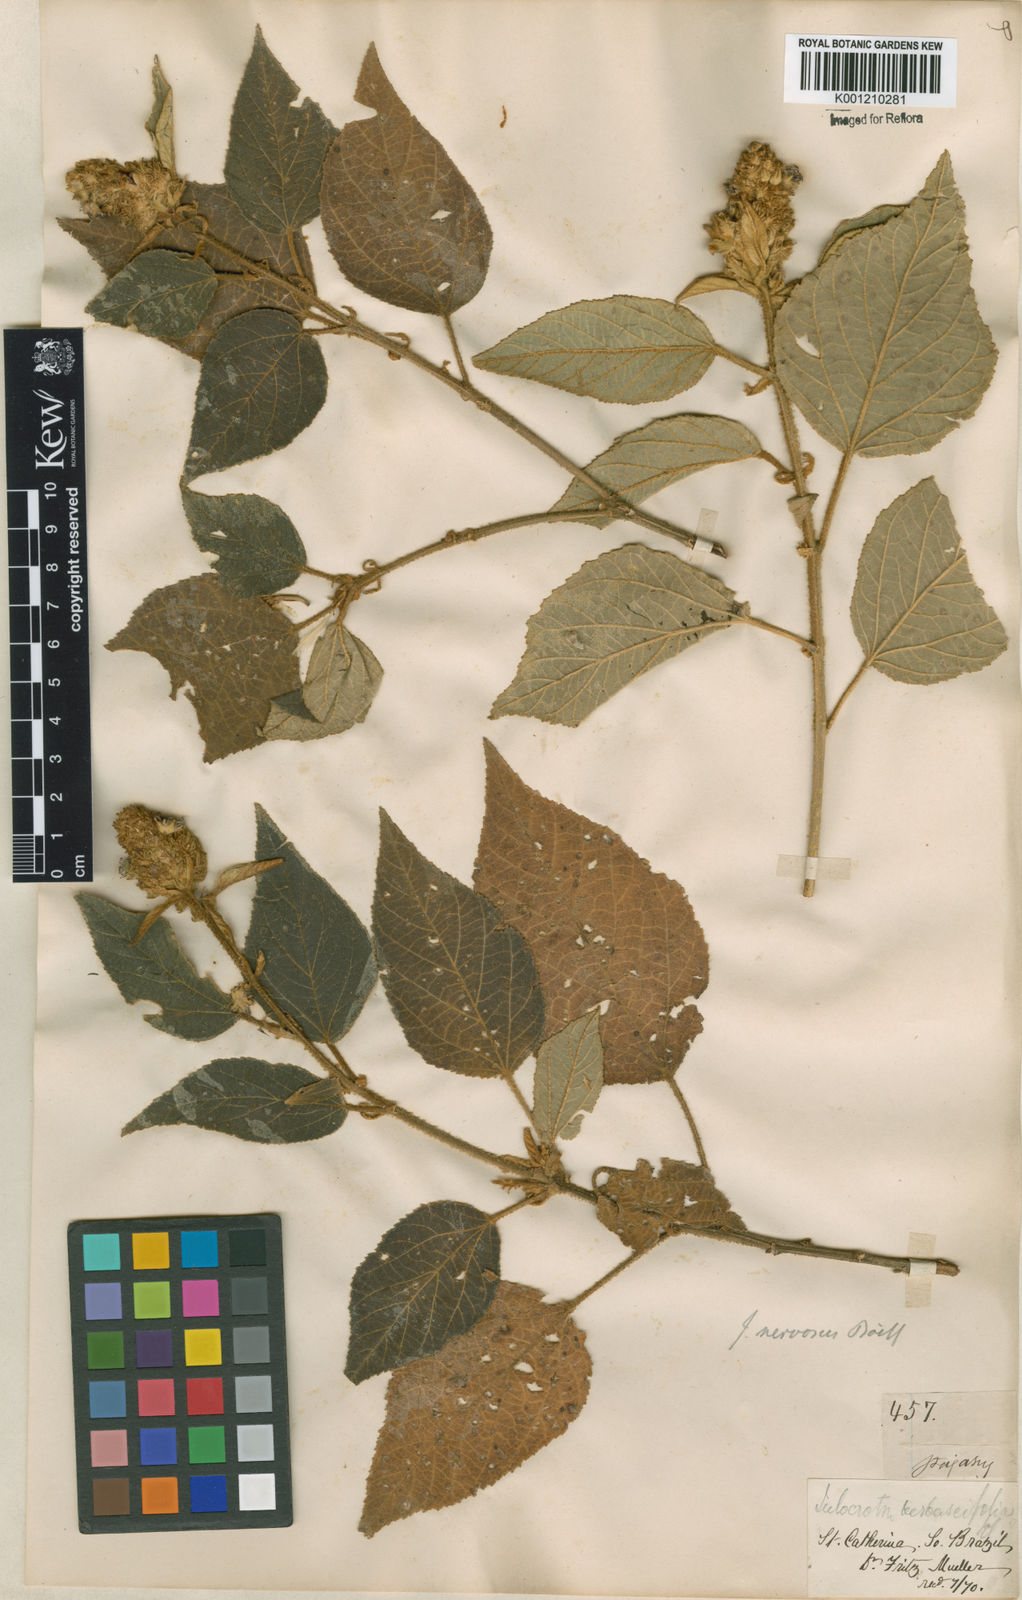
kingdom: Plantae
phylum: Tracheophyta
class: Magnoliopsida
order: Malpighiales
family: Euphorbiaceae
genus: Croton
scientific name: Croton calonervosus
